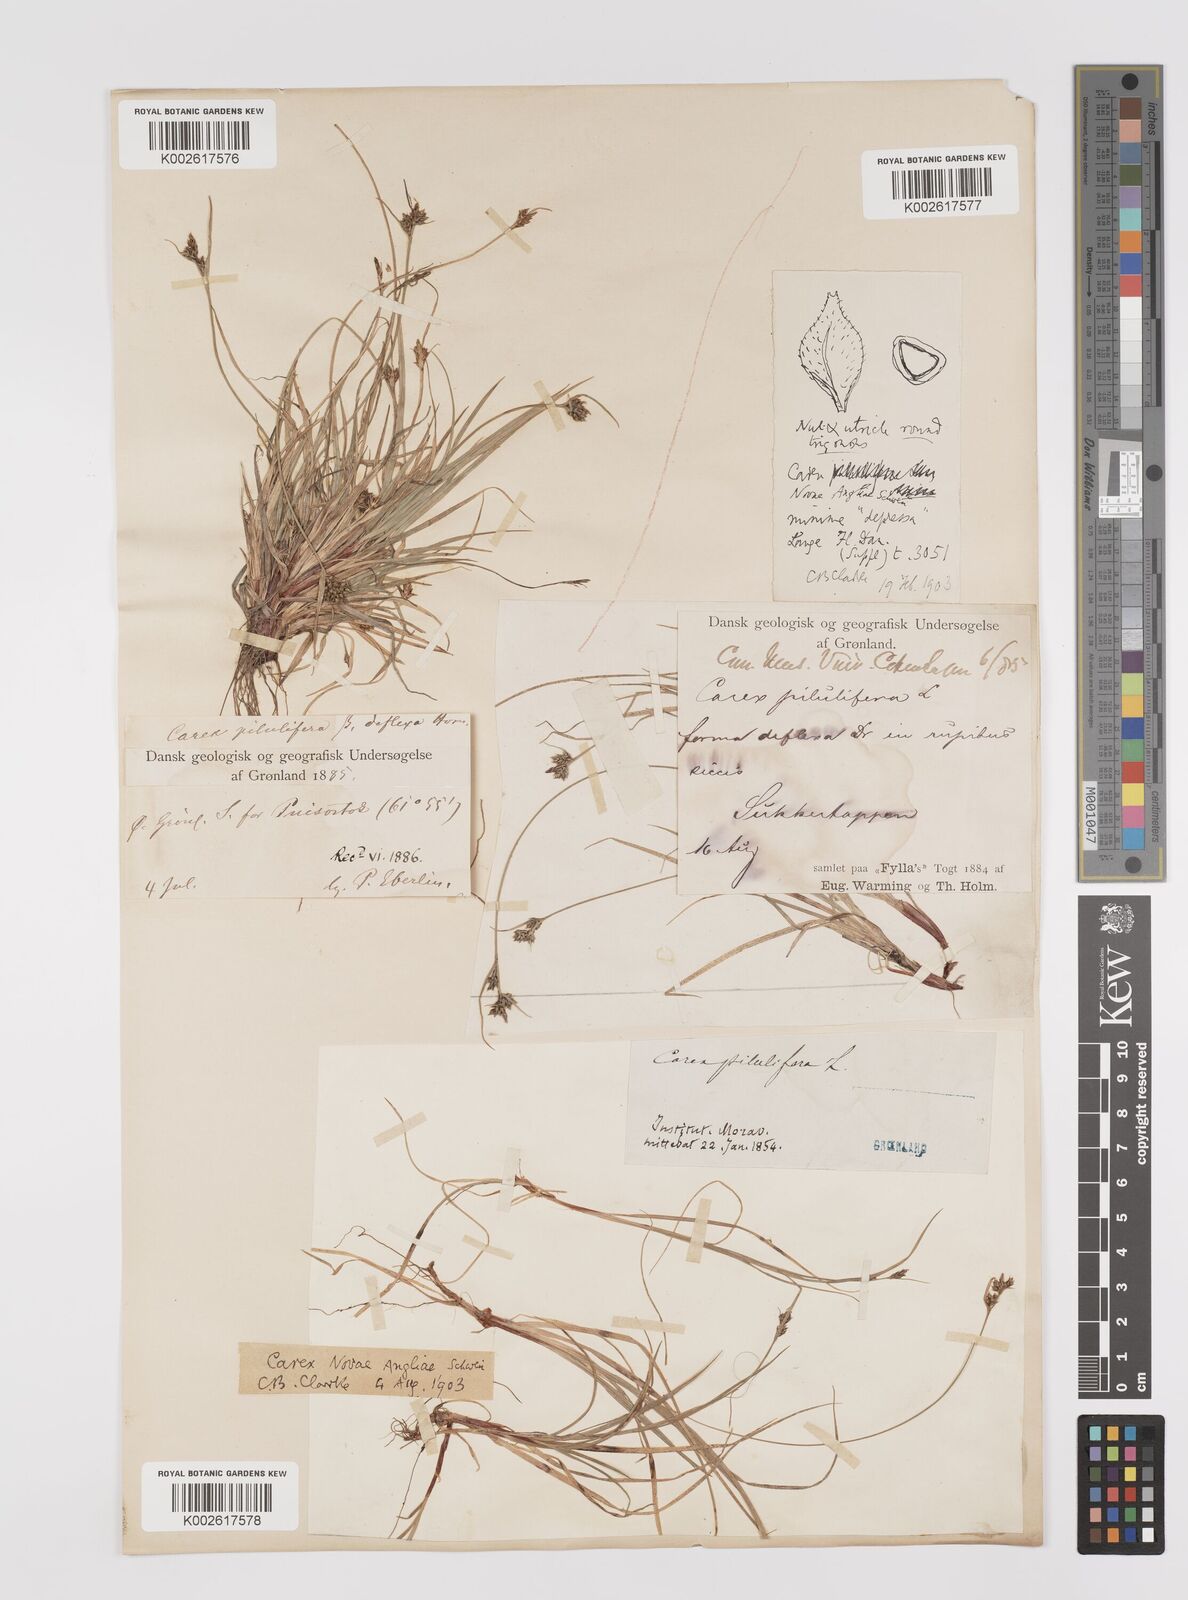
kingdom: Plantae
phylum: Tracheophyta
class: Liliopsida
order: Poales
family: Cyperaceae
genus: Carex
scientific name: Carex deflexa
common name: Bent northern sedge
